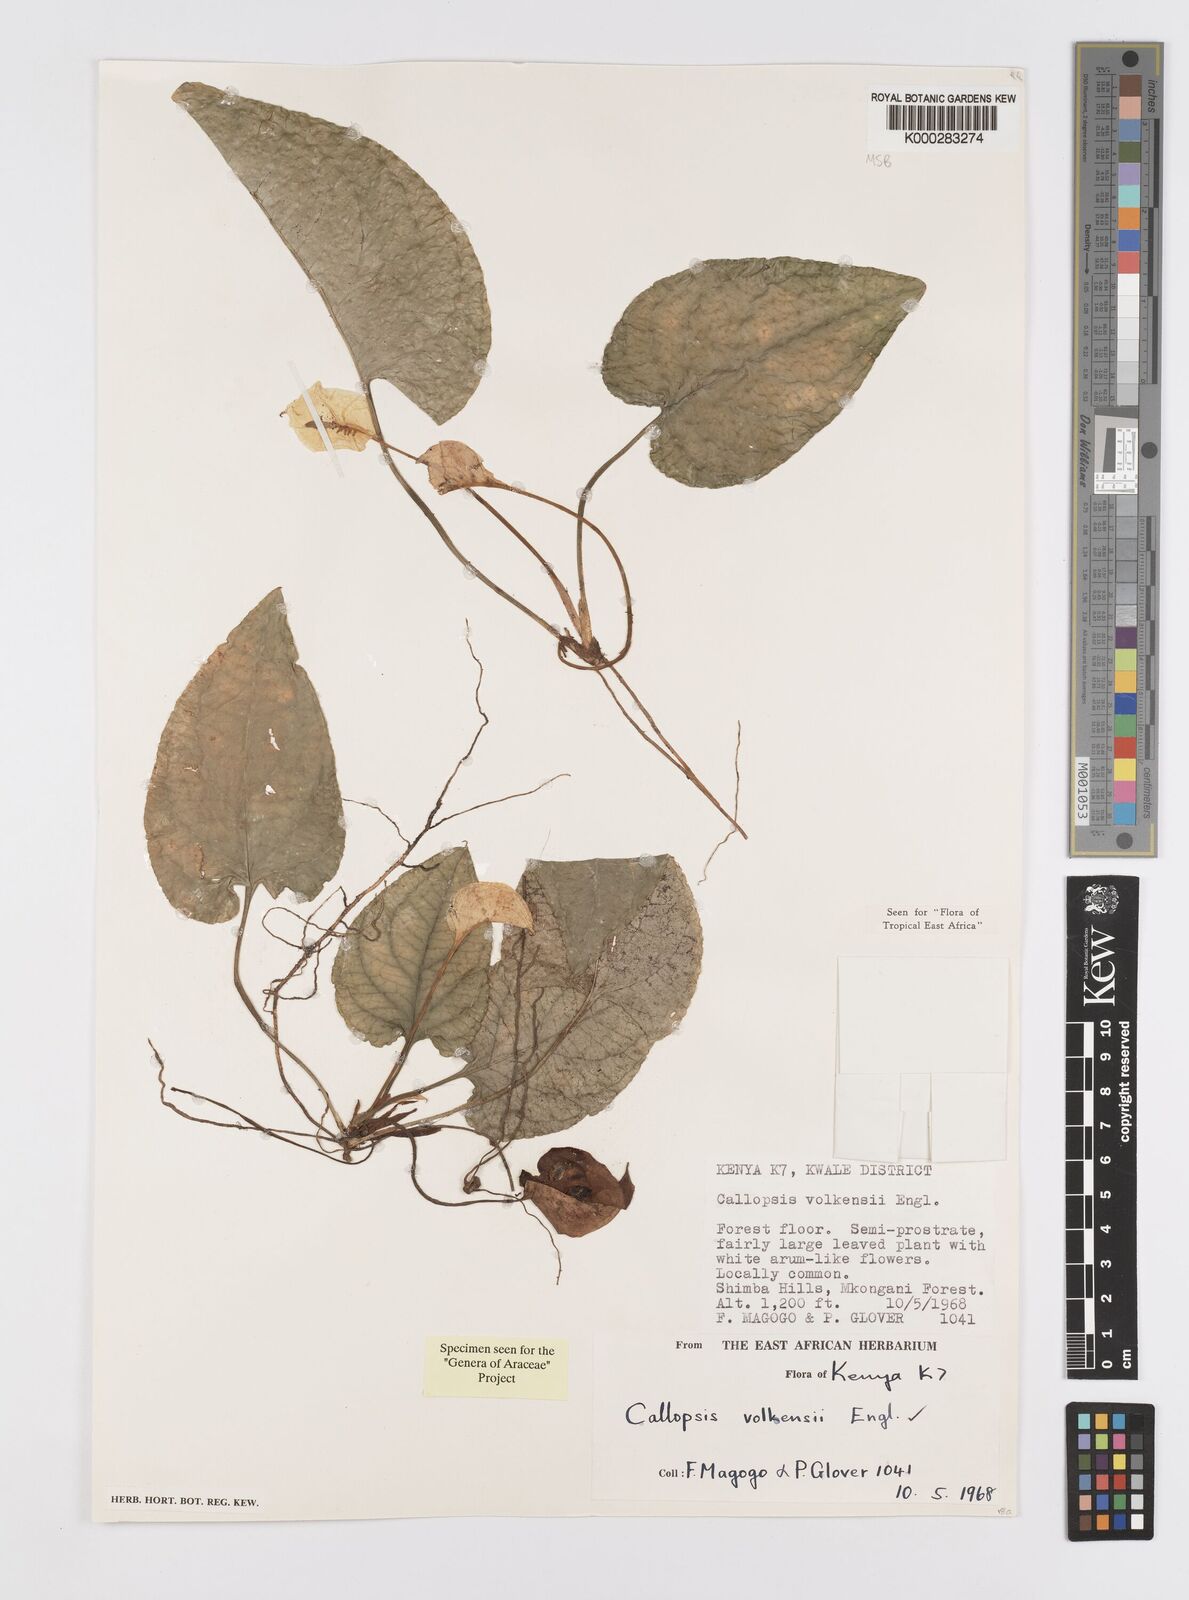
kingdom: Plantae
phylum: Tracheophyta
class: Liliopsida
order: Alismatales
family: Araceae
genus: Callopsis
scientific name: Callopsis volkensii
